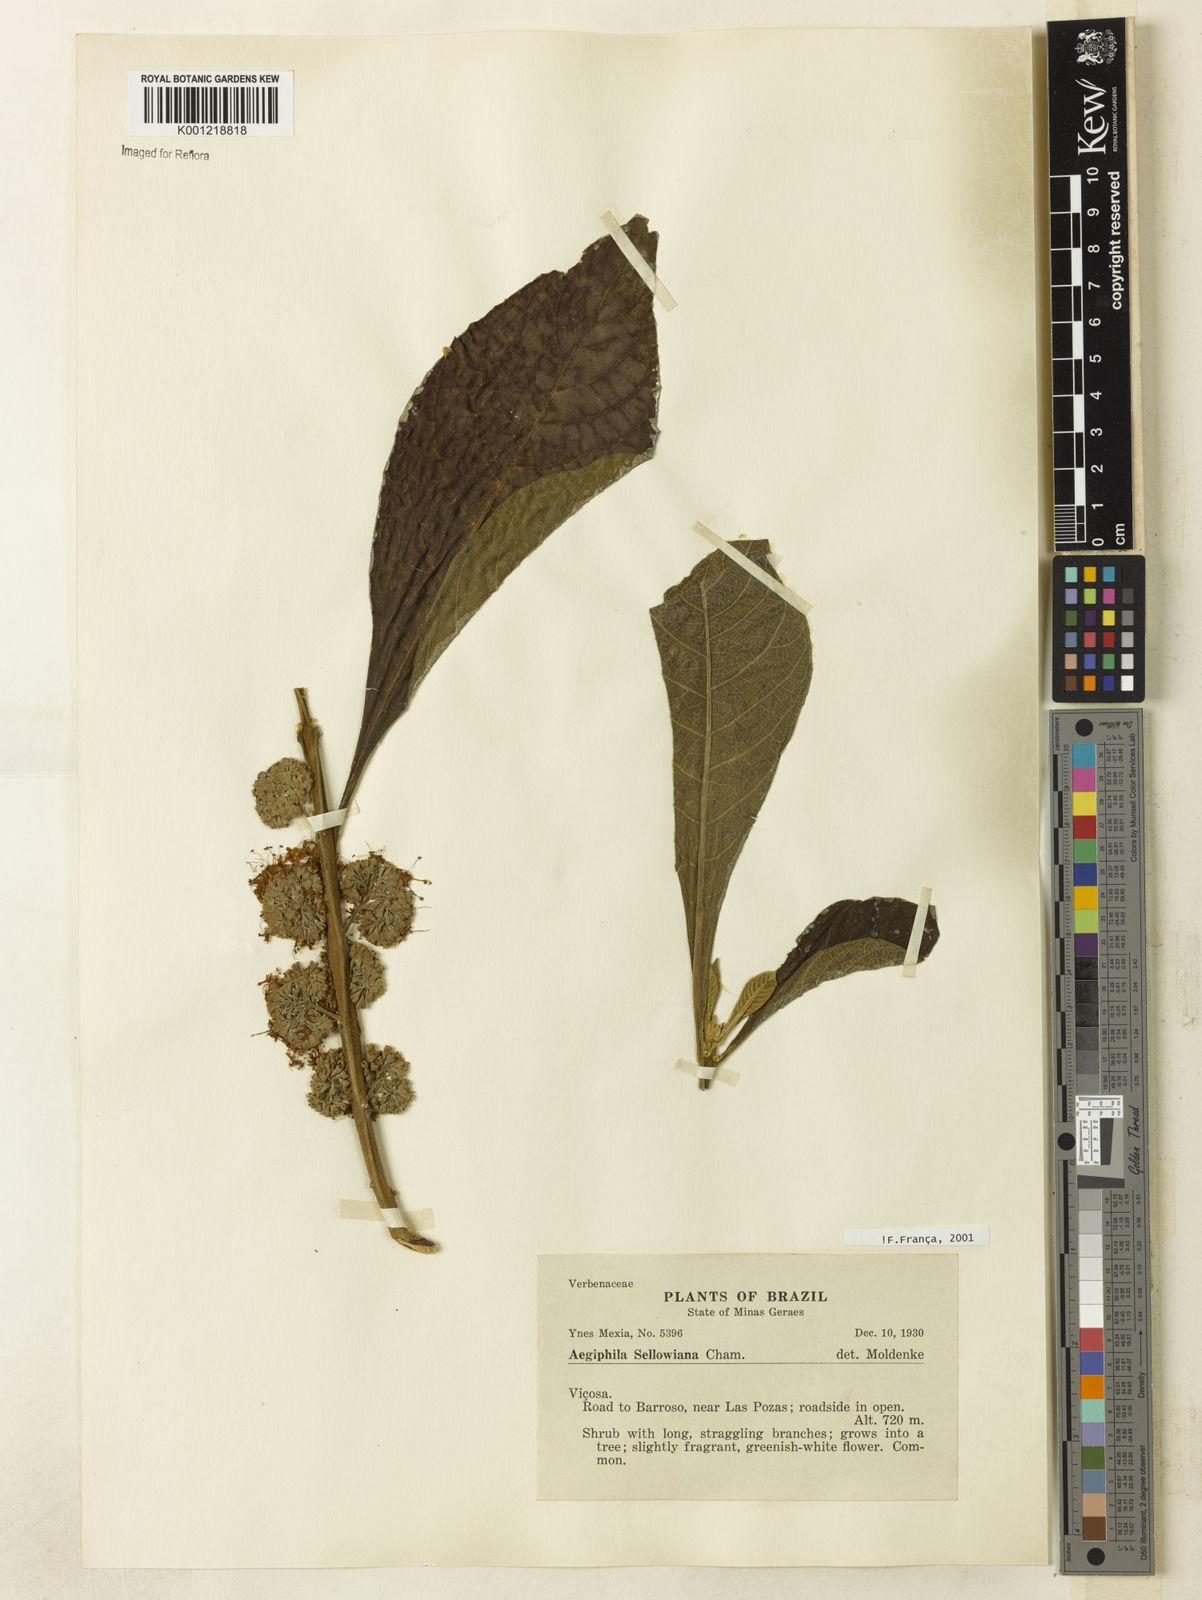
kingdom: Plantae
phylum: Tracheophyta
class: Magnoliopsida
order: Lamiales
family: Lamiaceae
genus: Aegiphila
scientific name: Aegiphila verticillata
